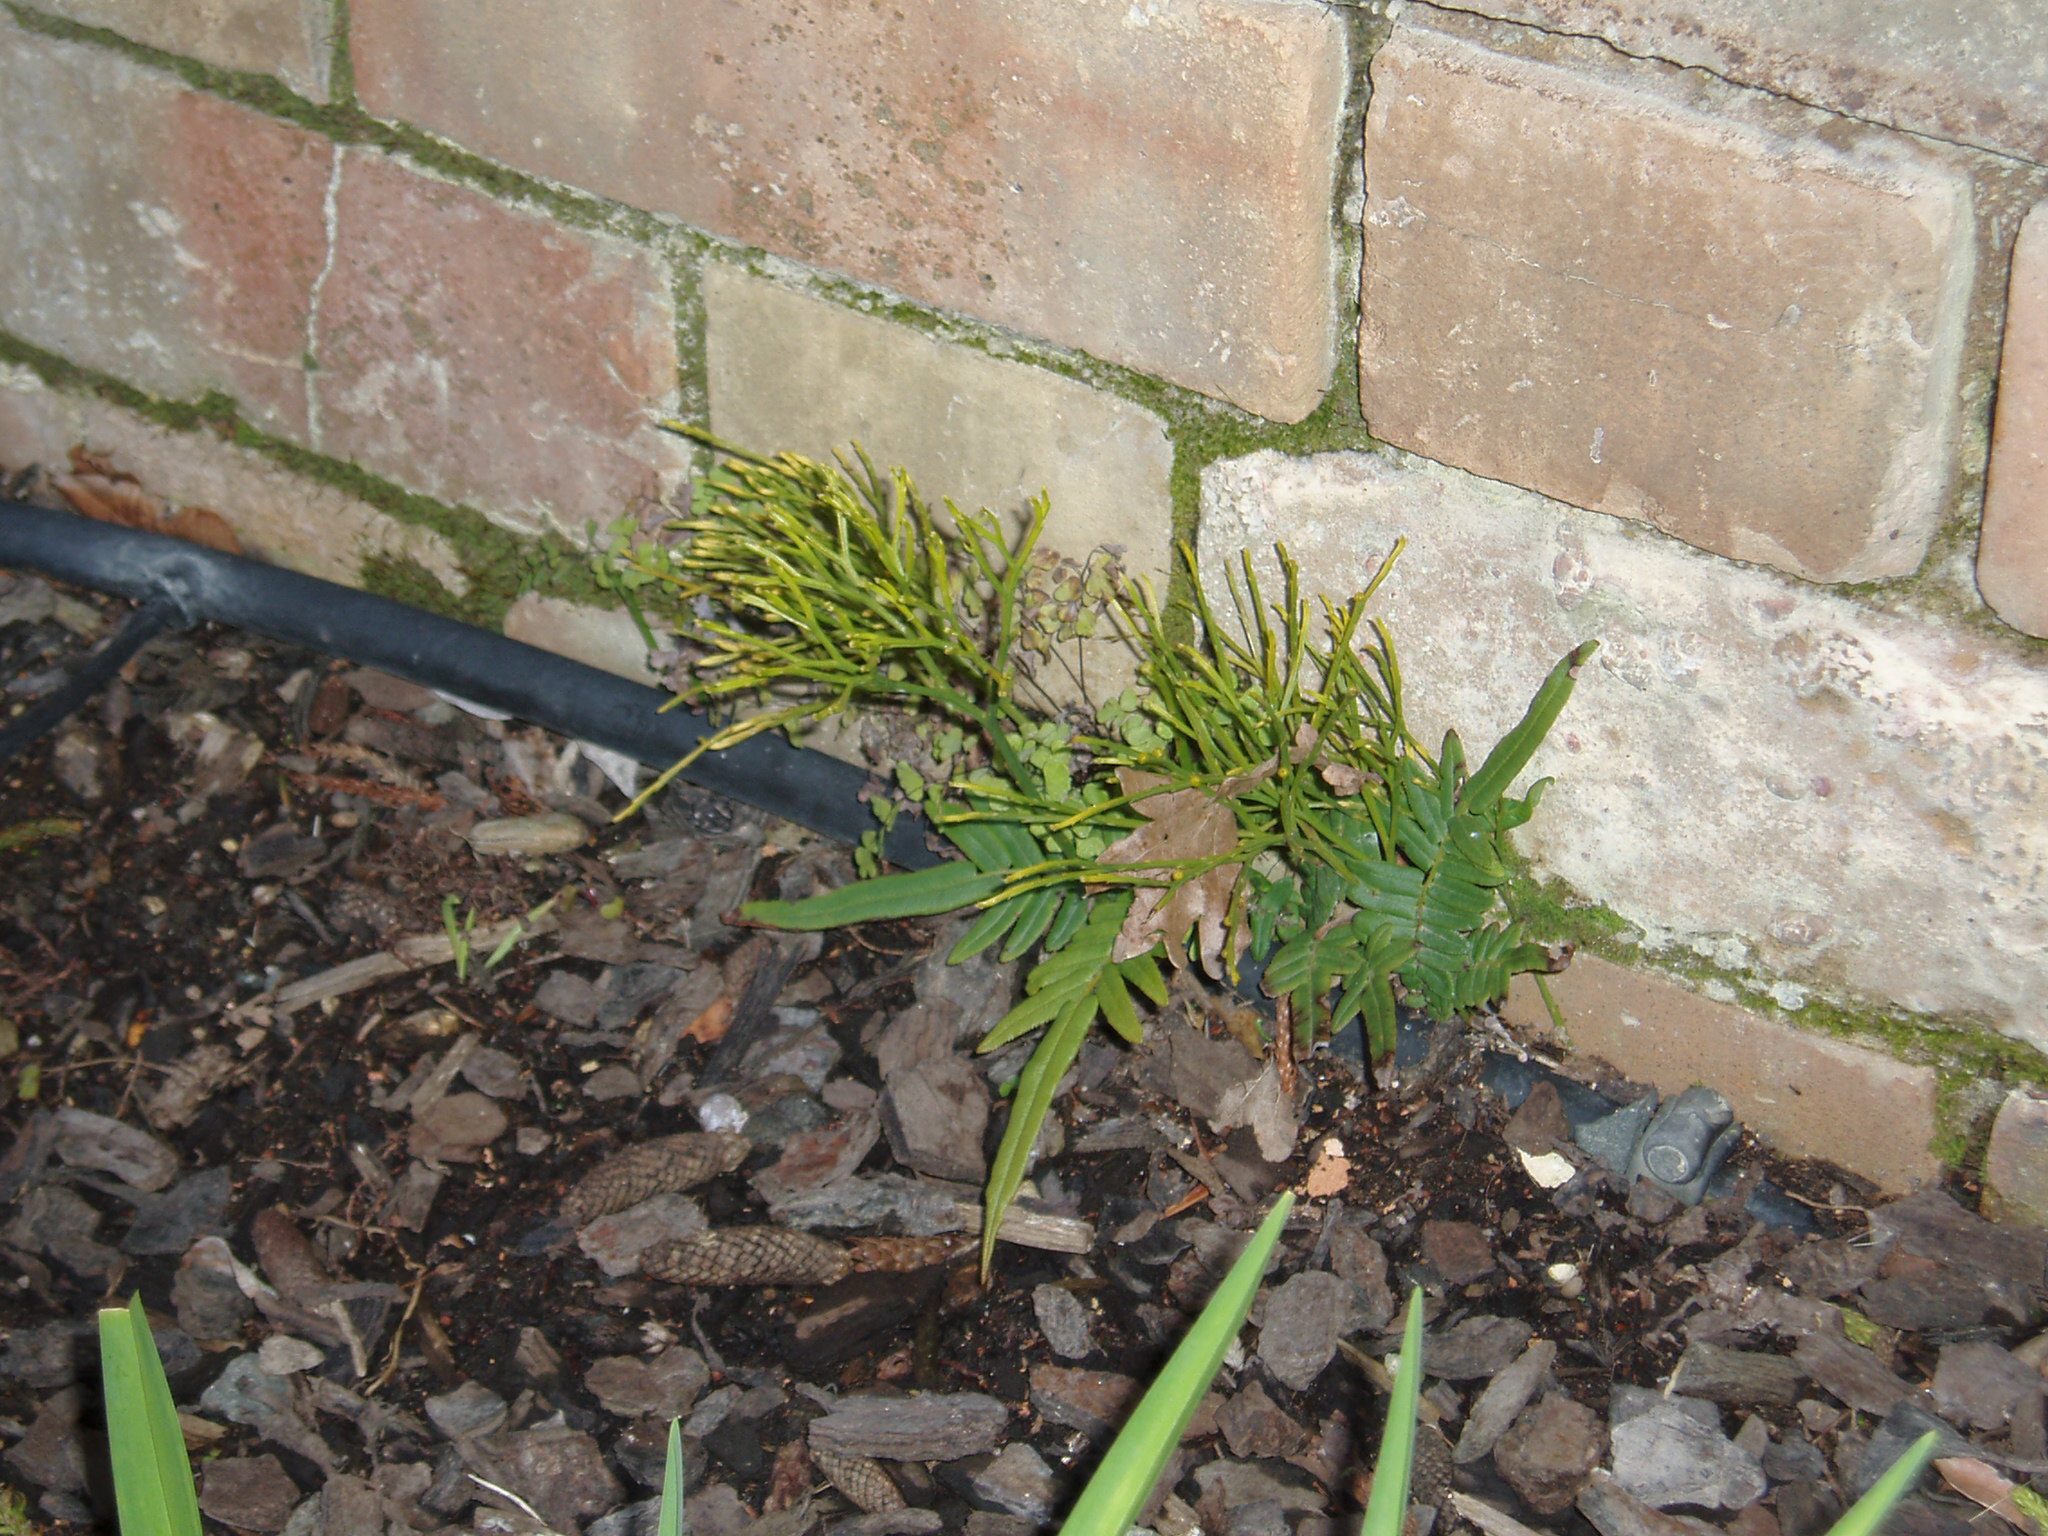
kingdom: Plantae
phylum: Tracheophyta
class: Polypodiopsida
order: Psilotales
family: Psilotaceae
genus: Psilotum
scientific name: Psilotum nudum
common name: Skeleton fork fern
